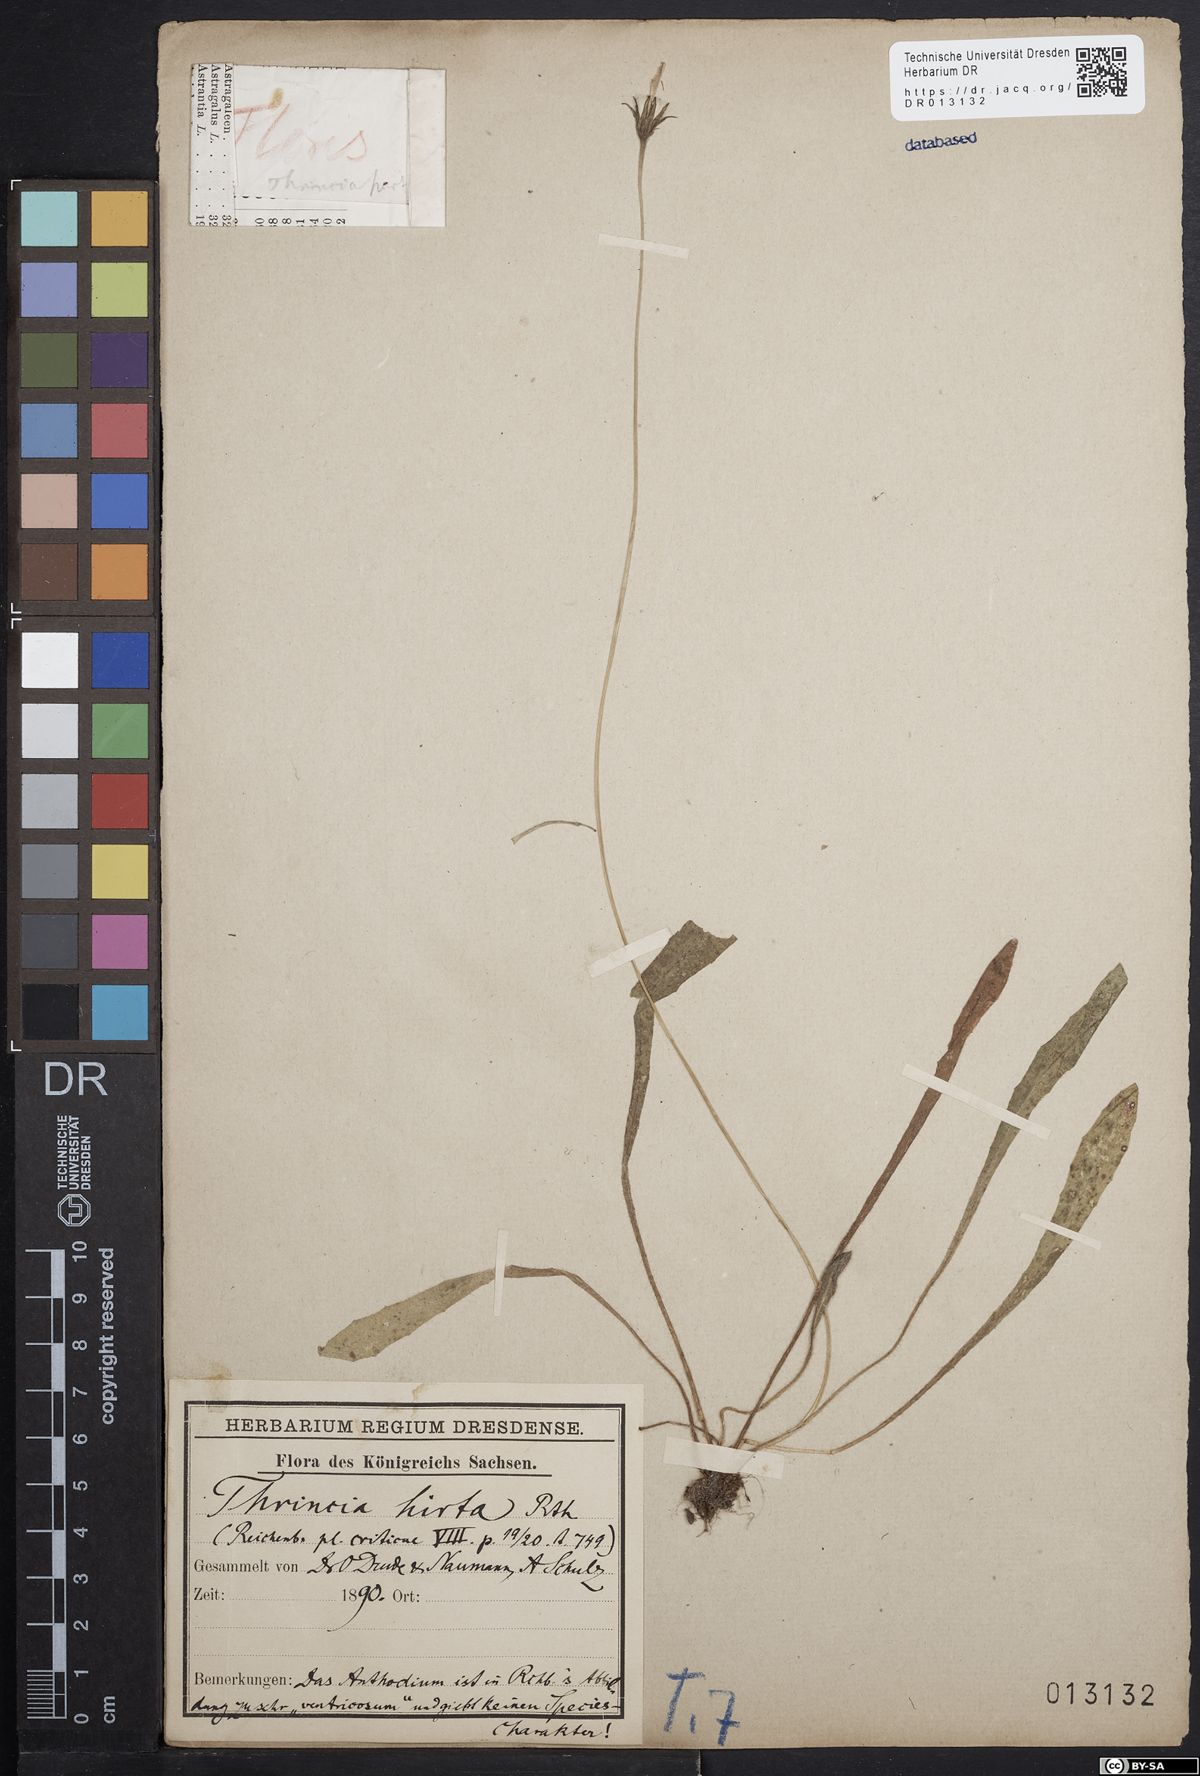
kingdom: Plantae
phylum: Tracheophyta
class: Magnoliopsida
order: Asterales
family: Asteraceae
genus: Thrincia
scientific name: Thrincia saxatilis
